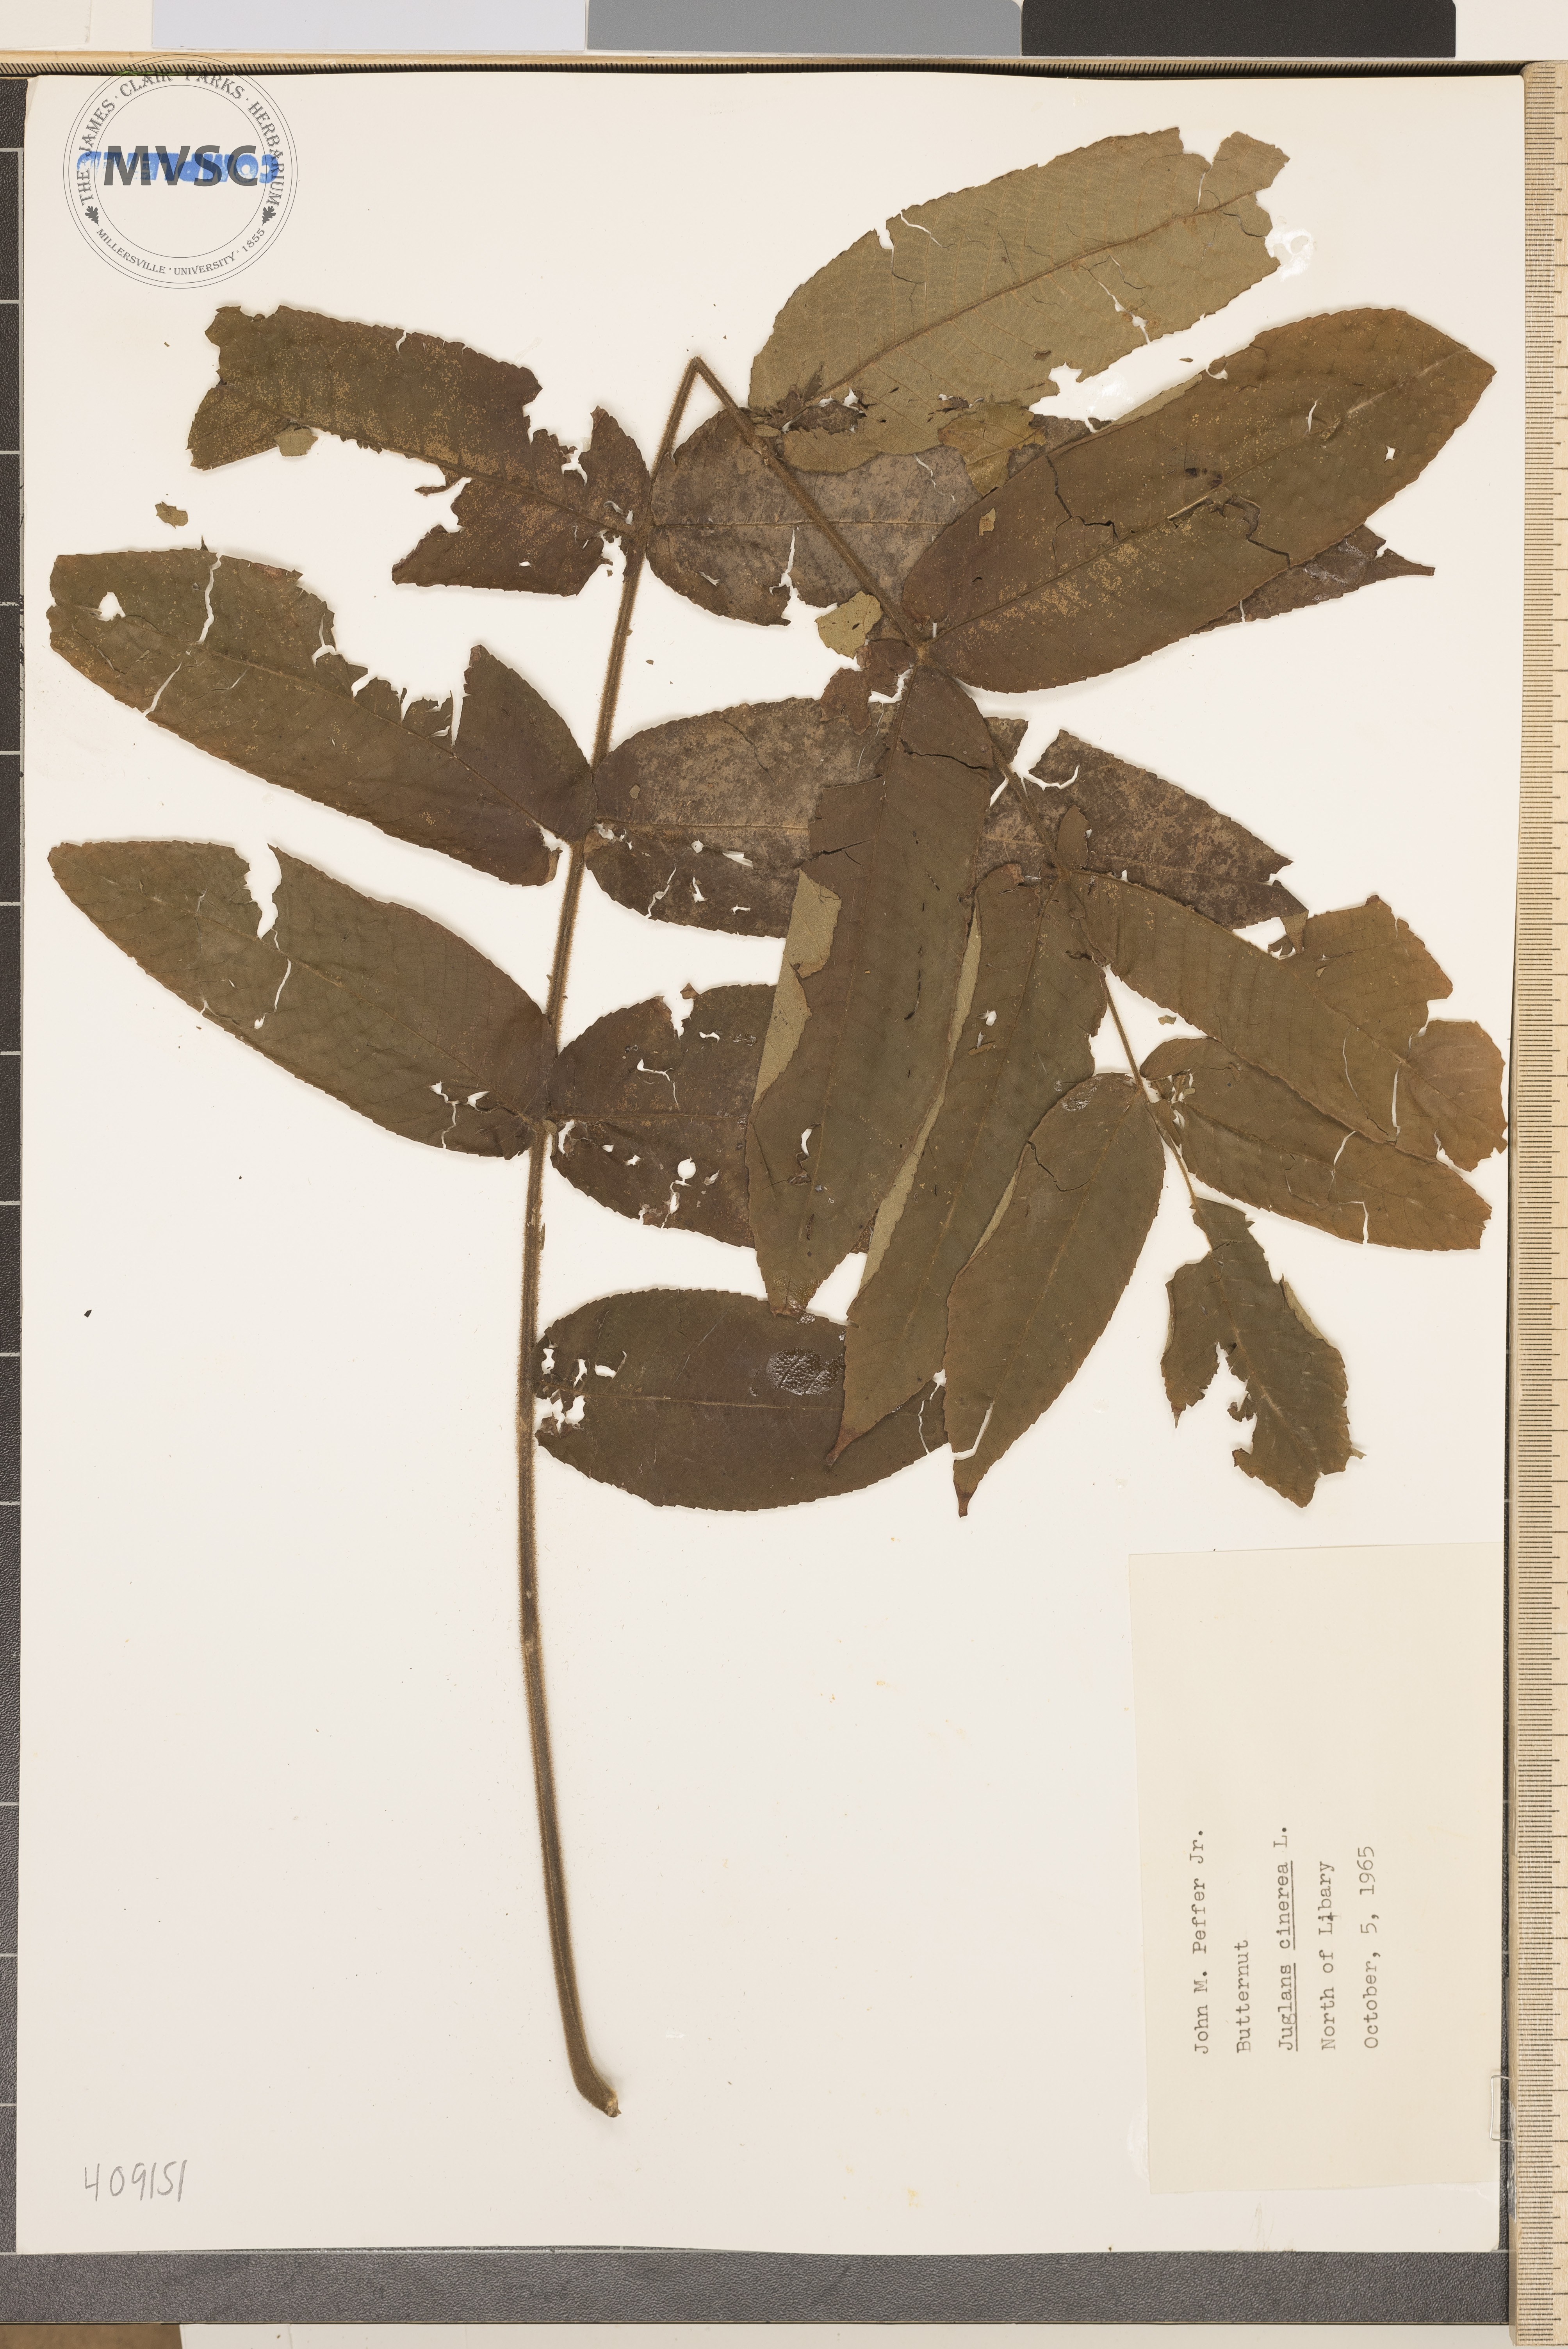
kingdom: Plantae
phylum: Tracheophyta
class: Magnoliopsida
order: Fagales
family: Juglandaceae
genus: Juglans
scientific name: Juglans cinerea
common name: Butternut
